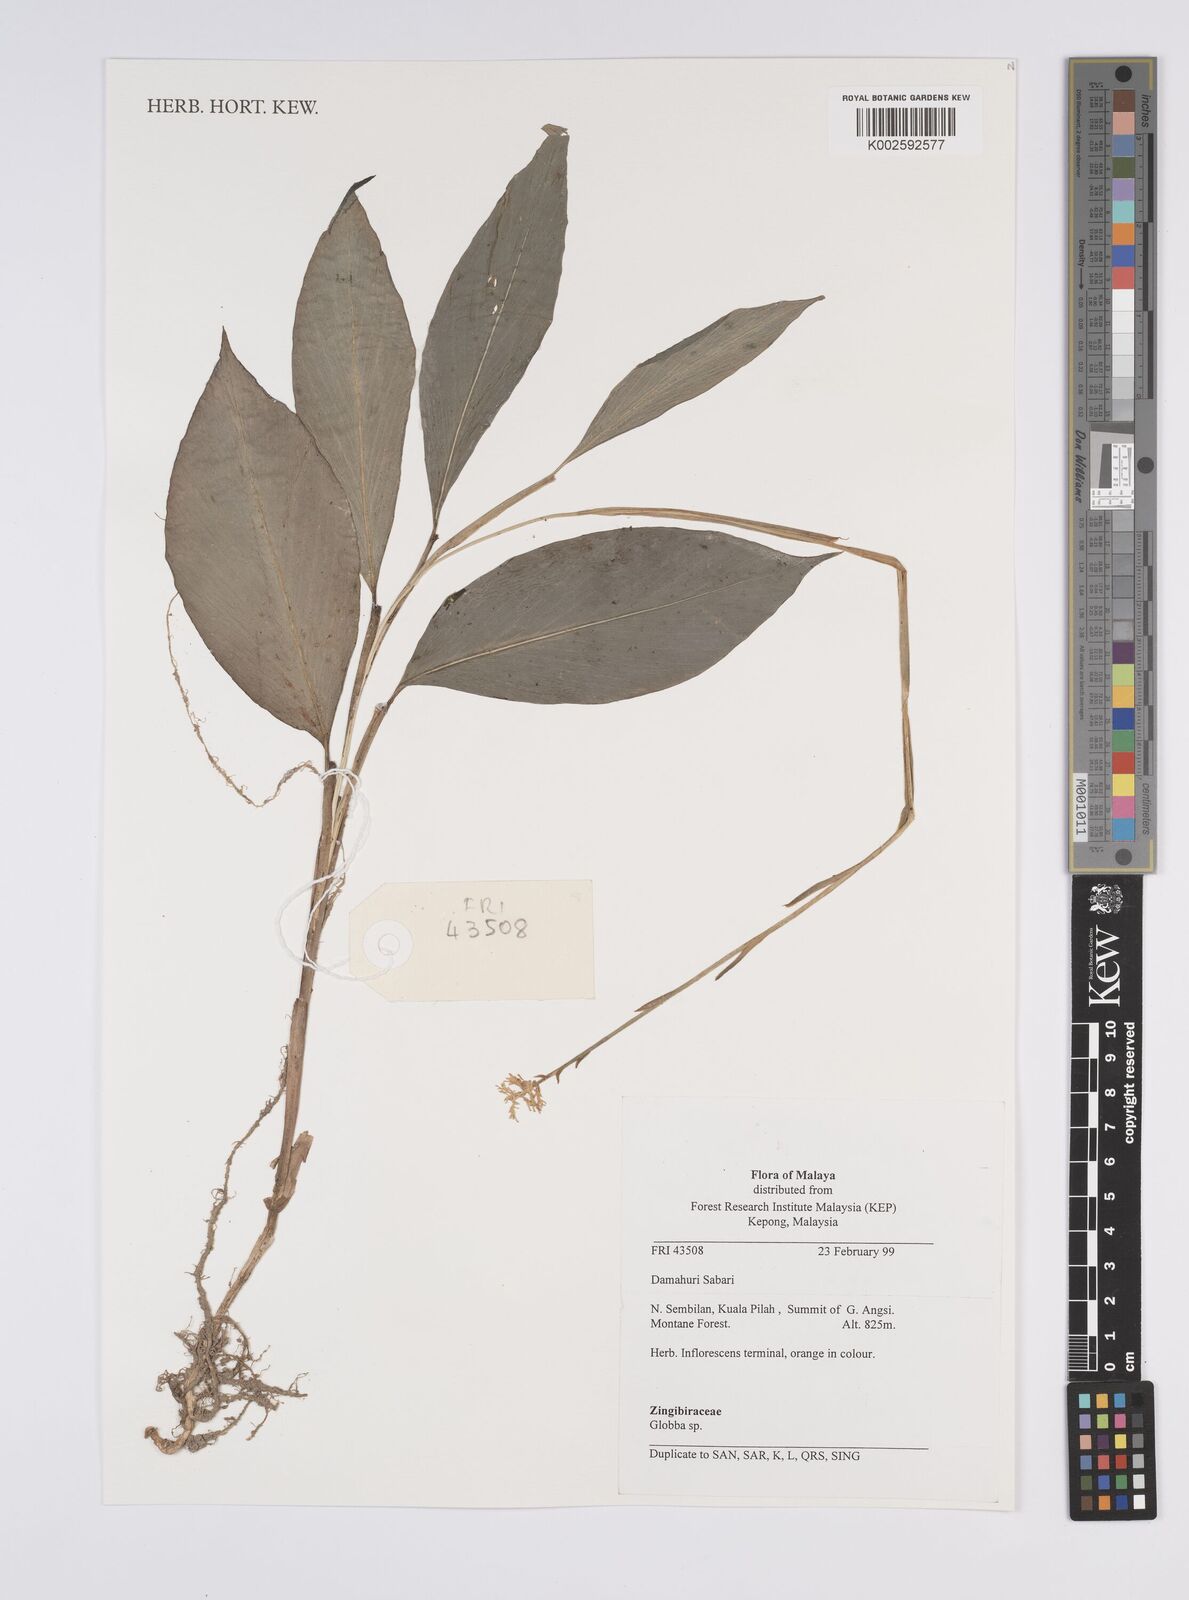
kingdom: Plantae
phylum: Tracheophyta
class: Liliopsida
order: Zingiberales
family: Zingiberaceae
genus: Globba
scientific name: Globba
